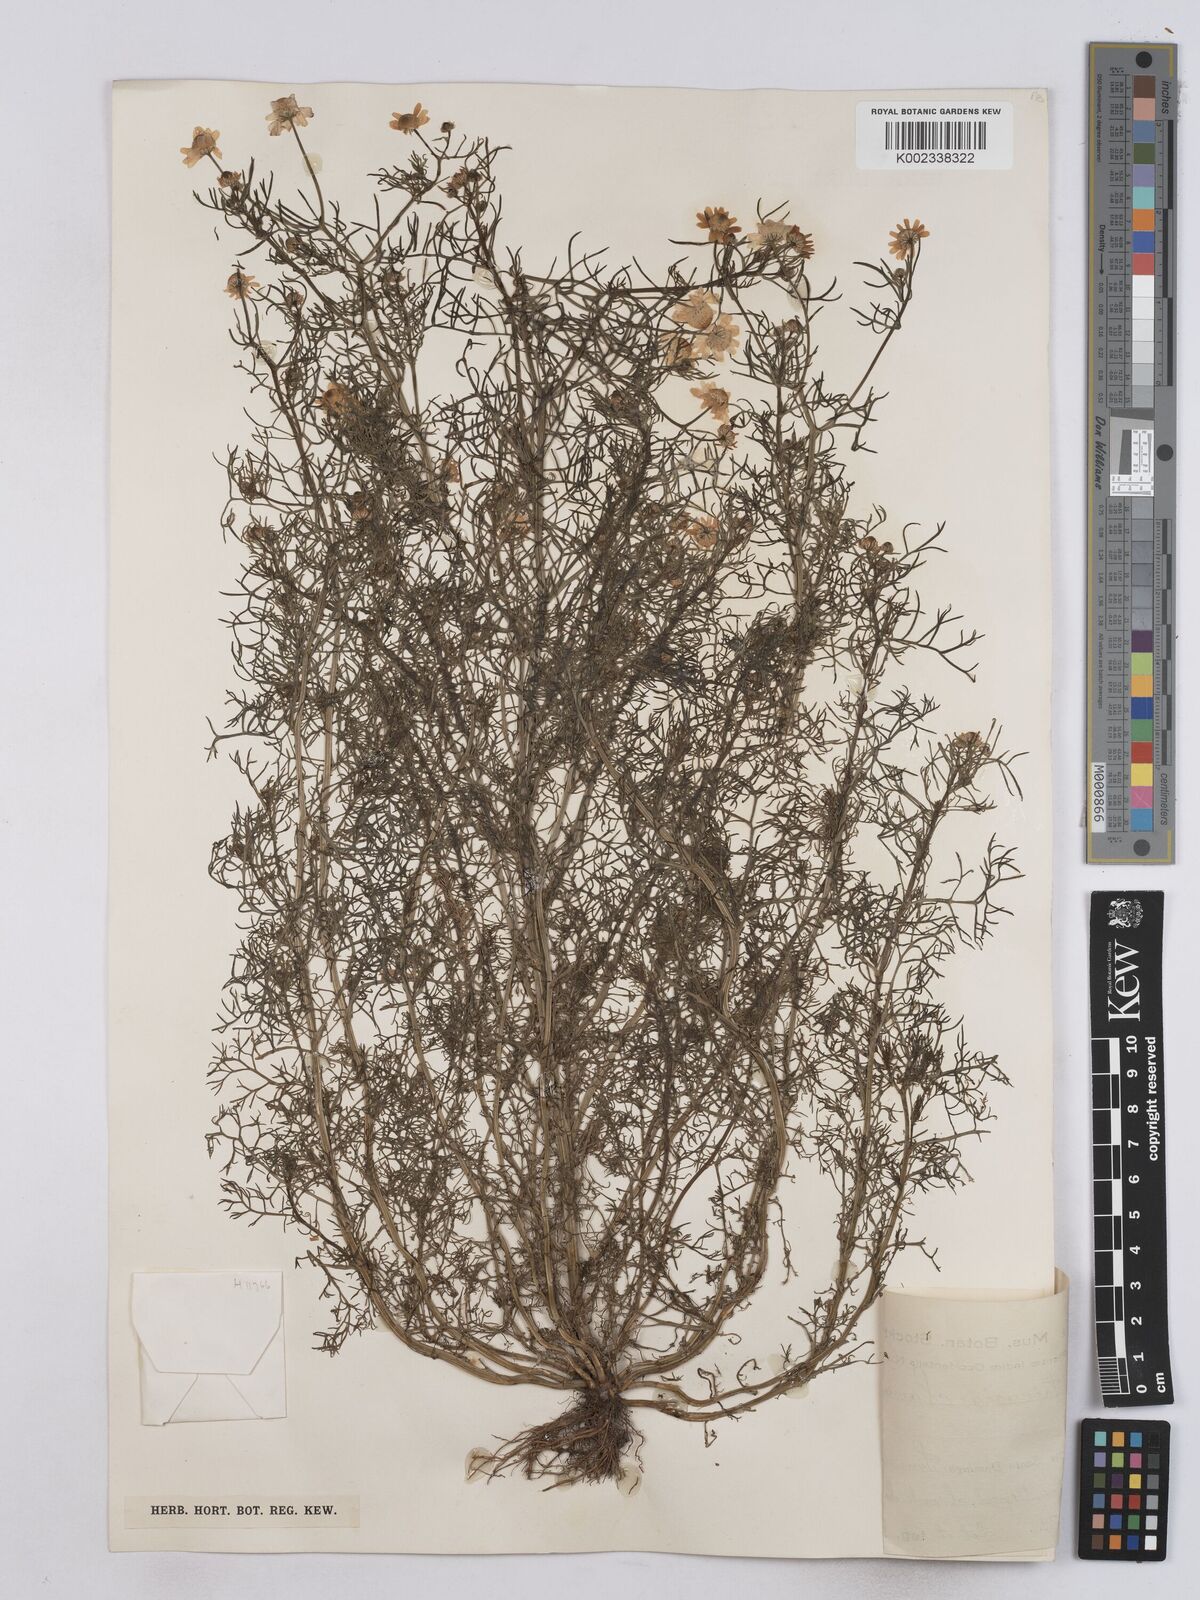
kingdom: Plantae
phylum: Tracheophyta
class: Magnoliopsida
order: Asterales
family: Asteraceae
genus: Matricaria
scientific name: Matricaria chamomilla
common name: Scented mayweed
